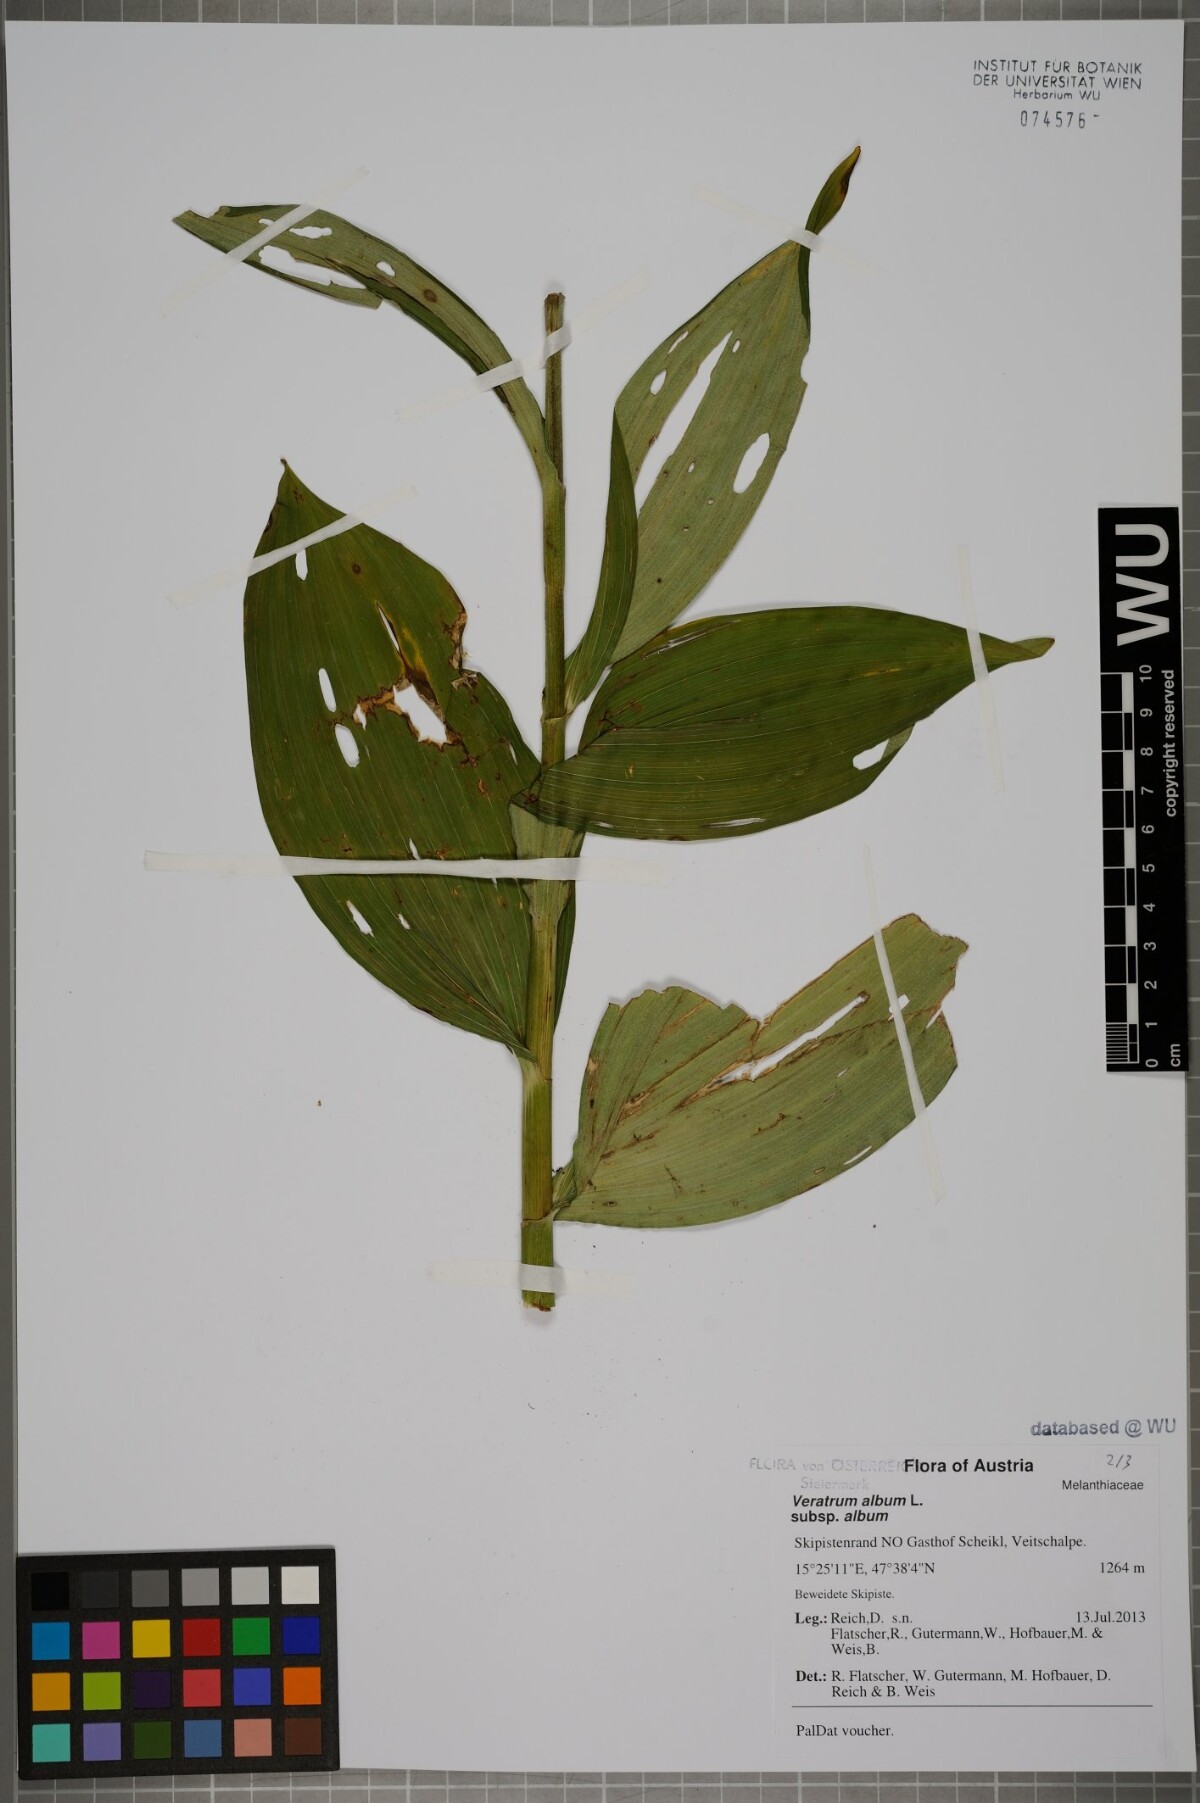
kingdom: Plantae
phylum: Tracheophyta
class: Liliopsida
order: Liliales
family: Melanthiaceae
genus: Veratrum
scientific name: Veratrum album
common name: White veratrum
